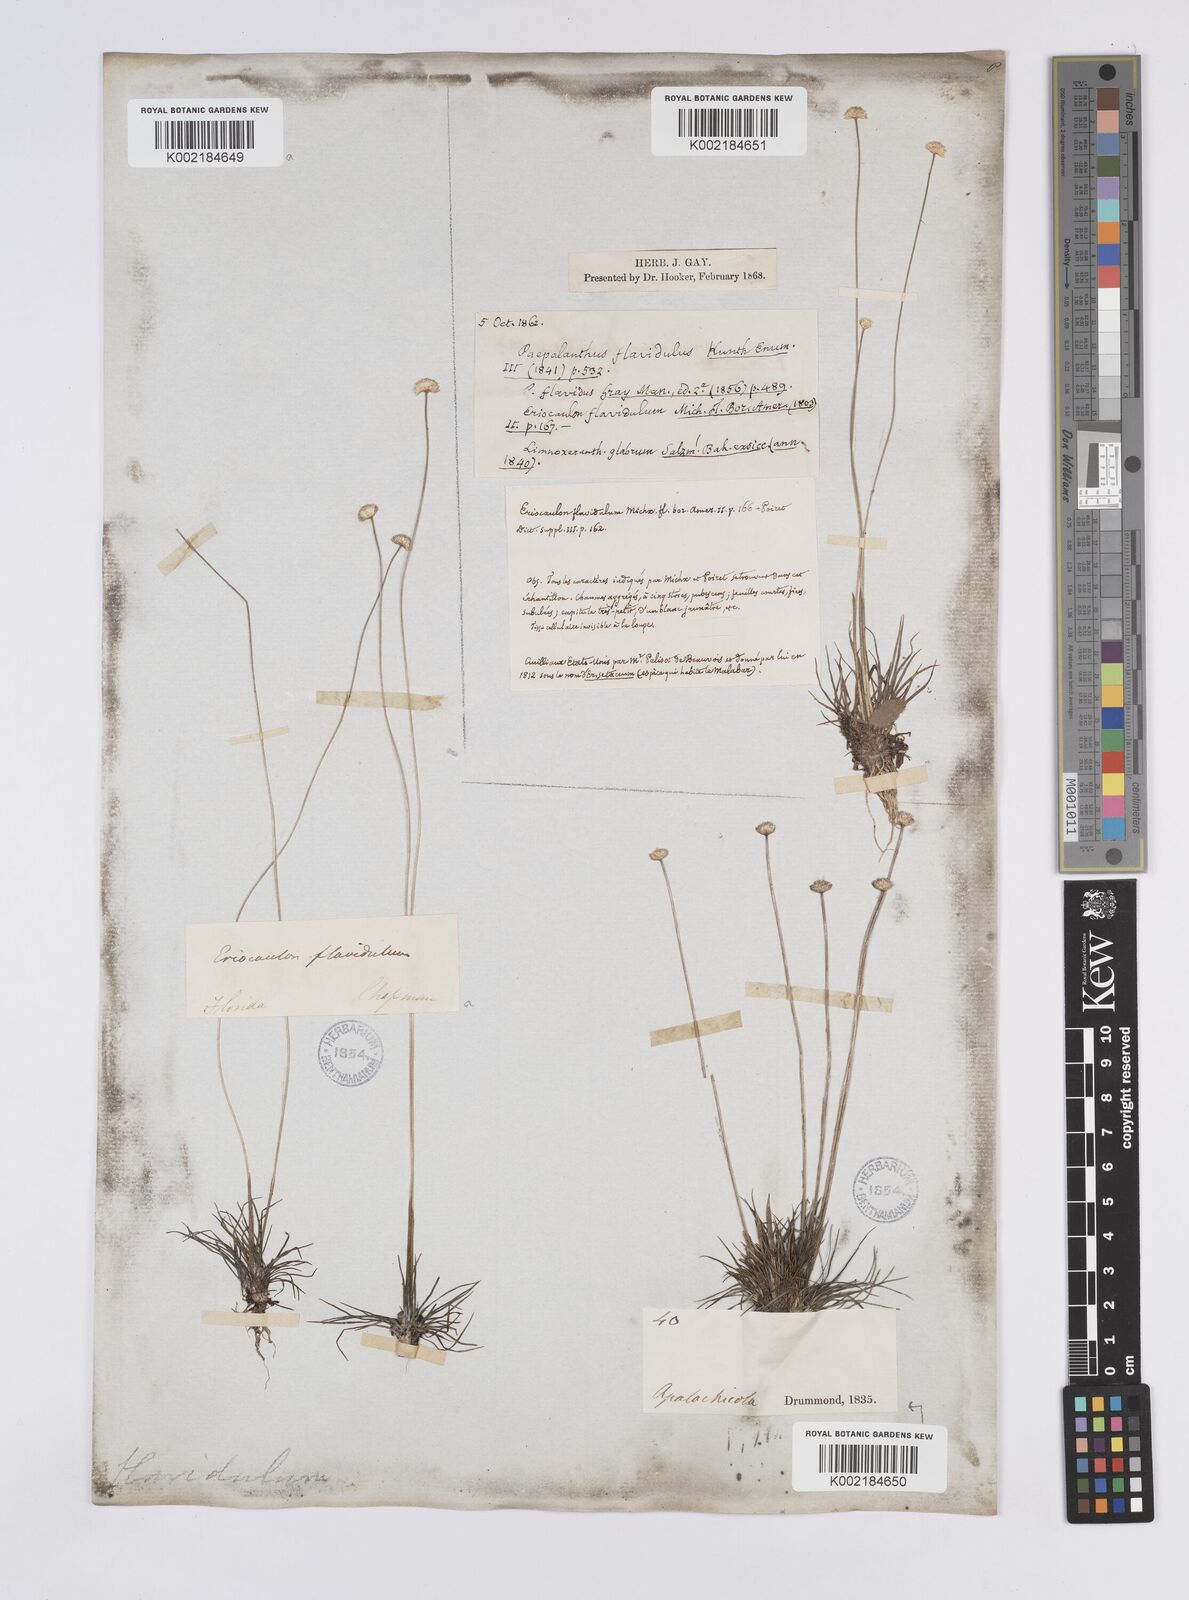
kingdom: Plantae
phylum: Tracheophyta
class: Liliopsida
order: Poales
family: Eriocaulaceae
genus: Syngonanthus
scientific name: Syngonanthus flavidulus
